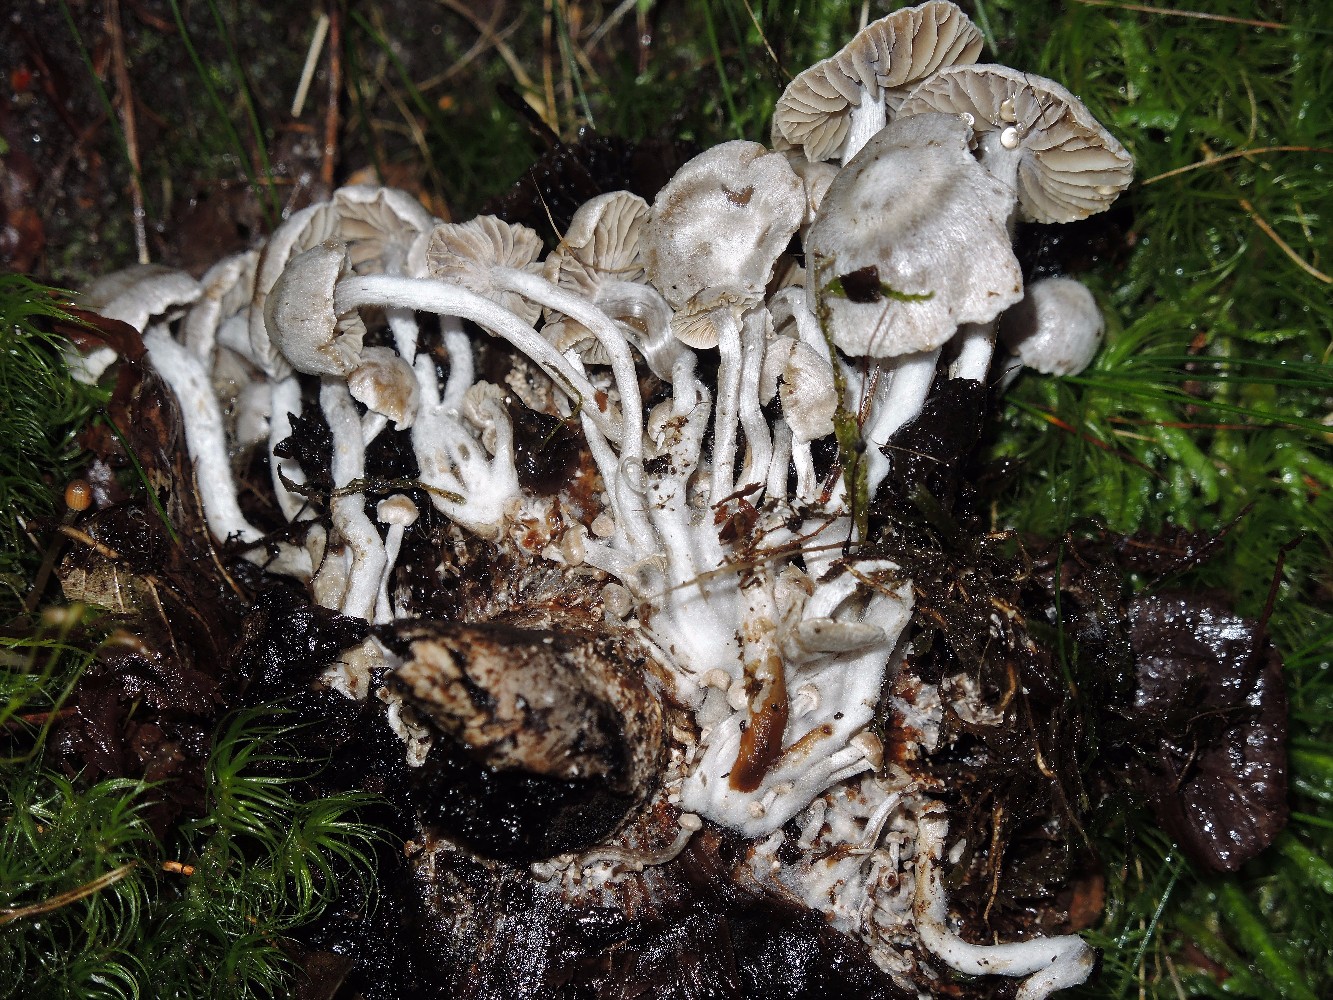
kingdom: Fungi
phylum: Basidiomycota
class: Agaricomycetes
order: Agaricales
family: Lyophyllaceae
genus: Asterophora
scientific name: Asterophora parasitica
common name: grå snyltehat
